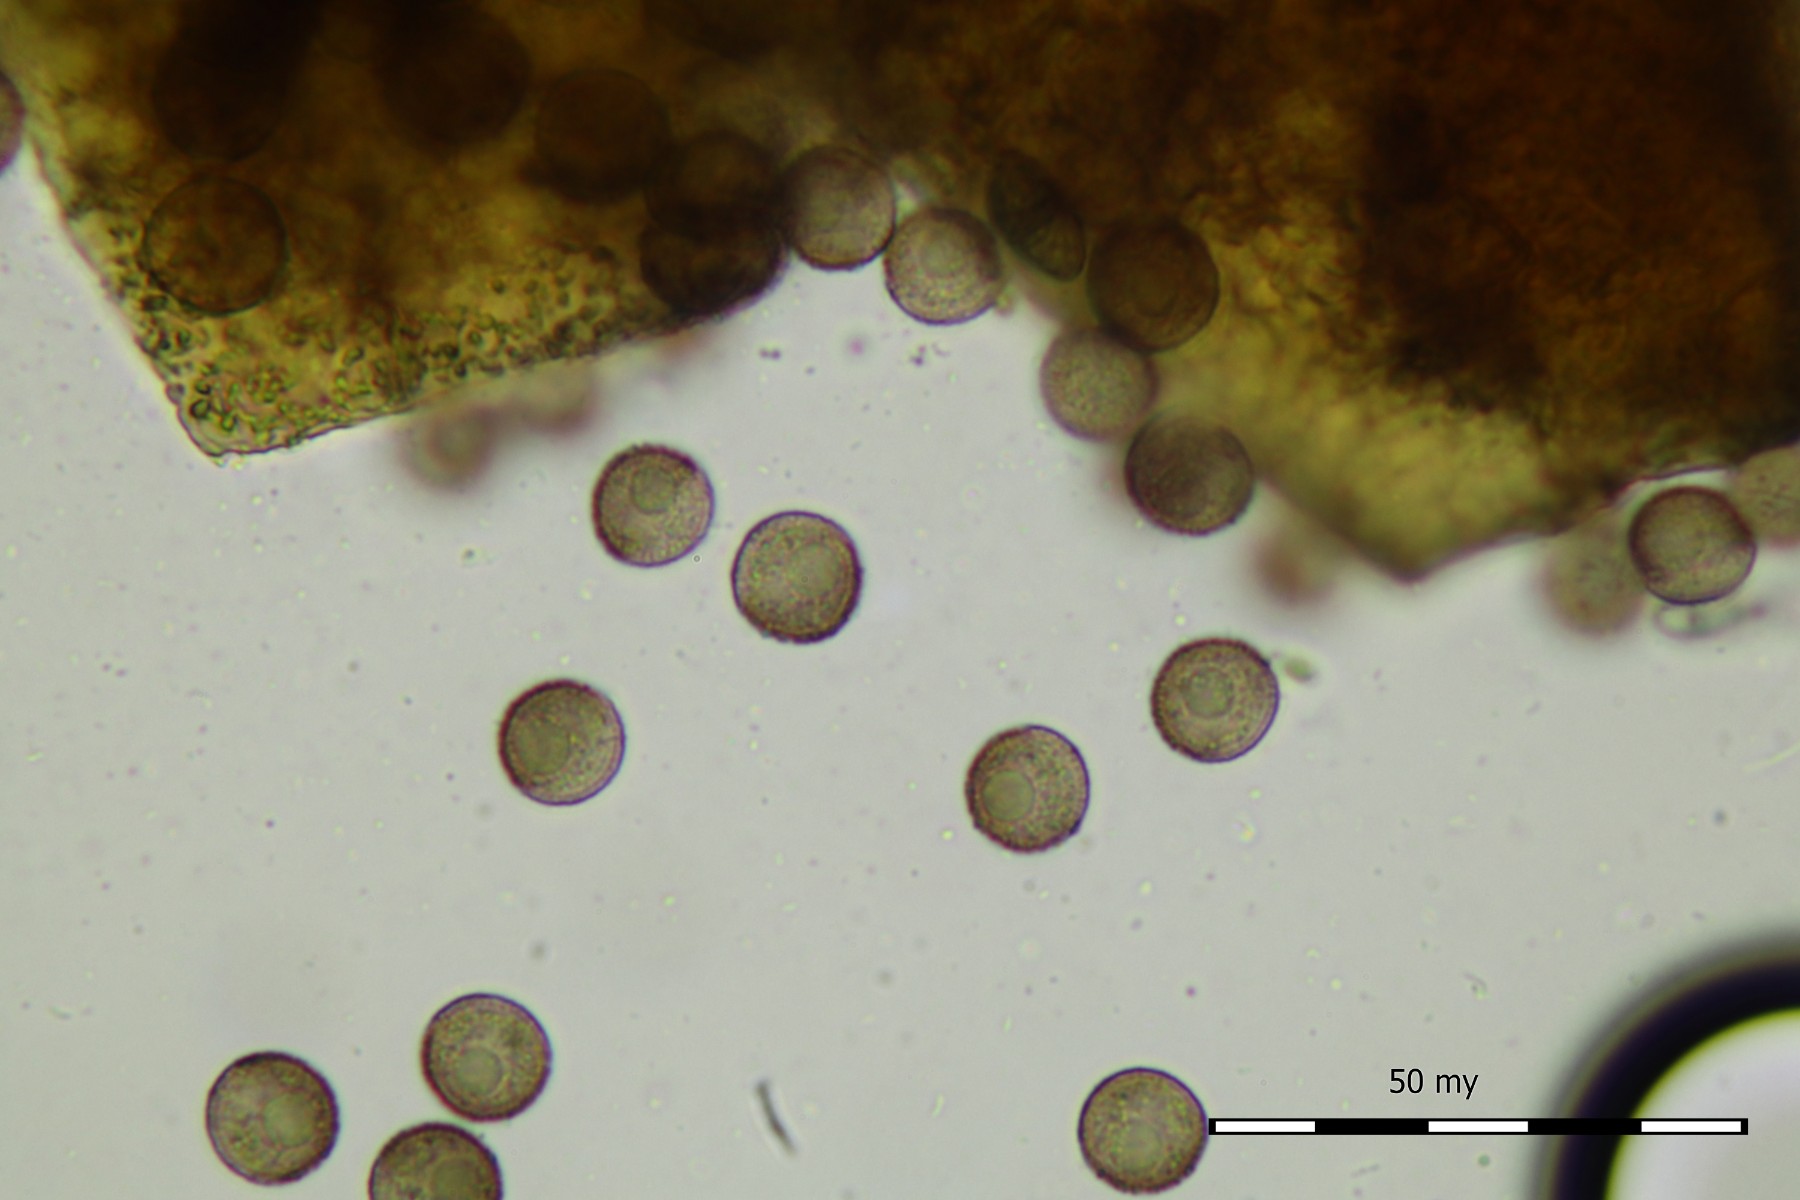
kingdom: Protozoa
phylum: Mycetozoa
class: Myxomycetes
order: Cribrariales
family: Liceaceae
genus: Licea
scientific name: Licea pygmaea
